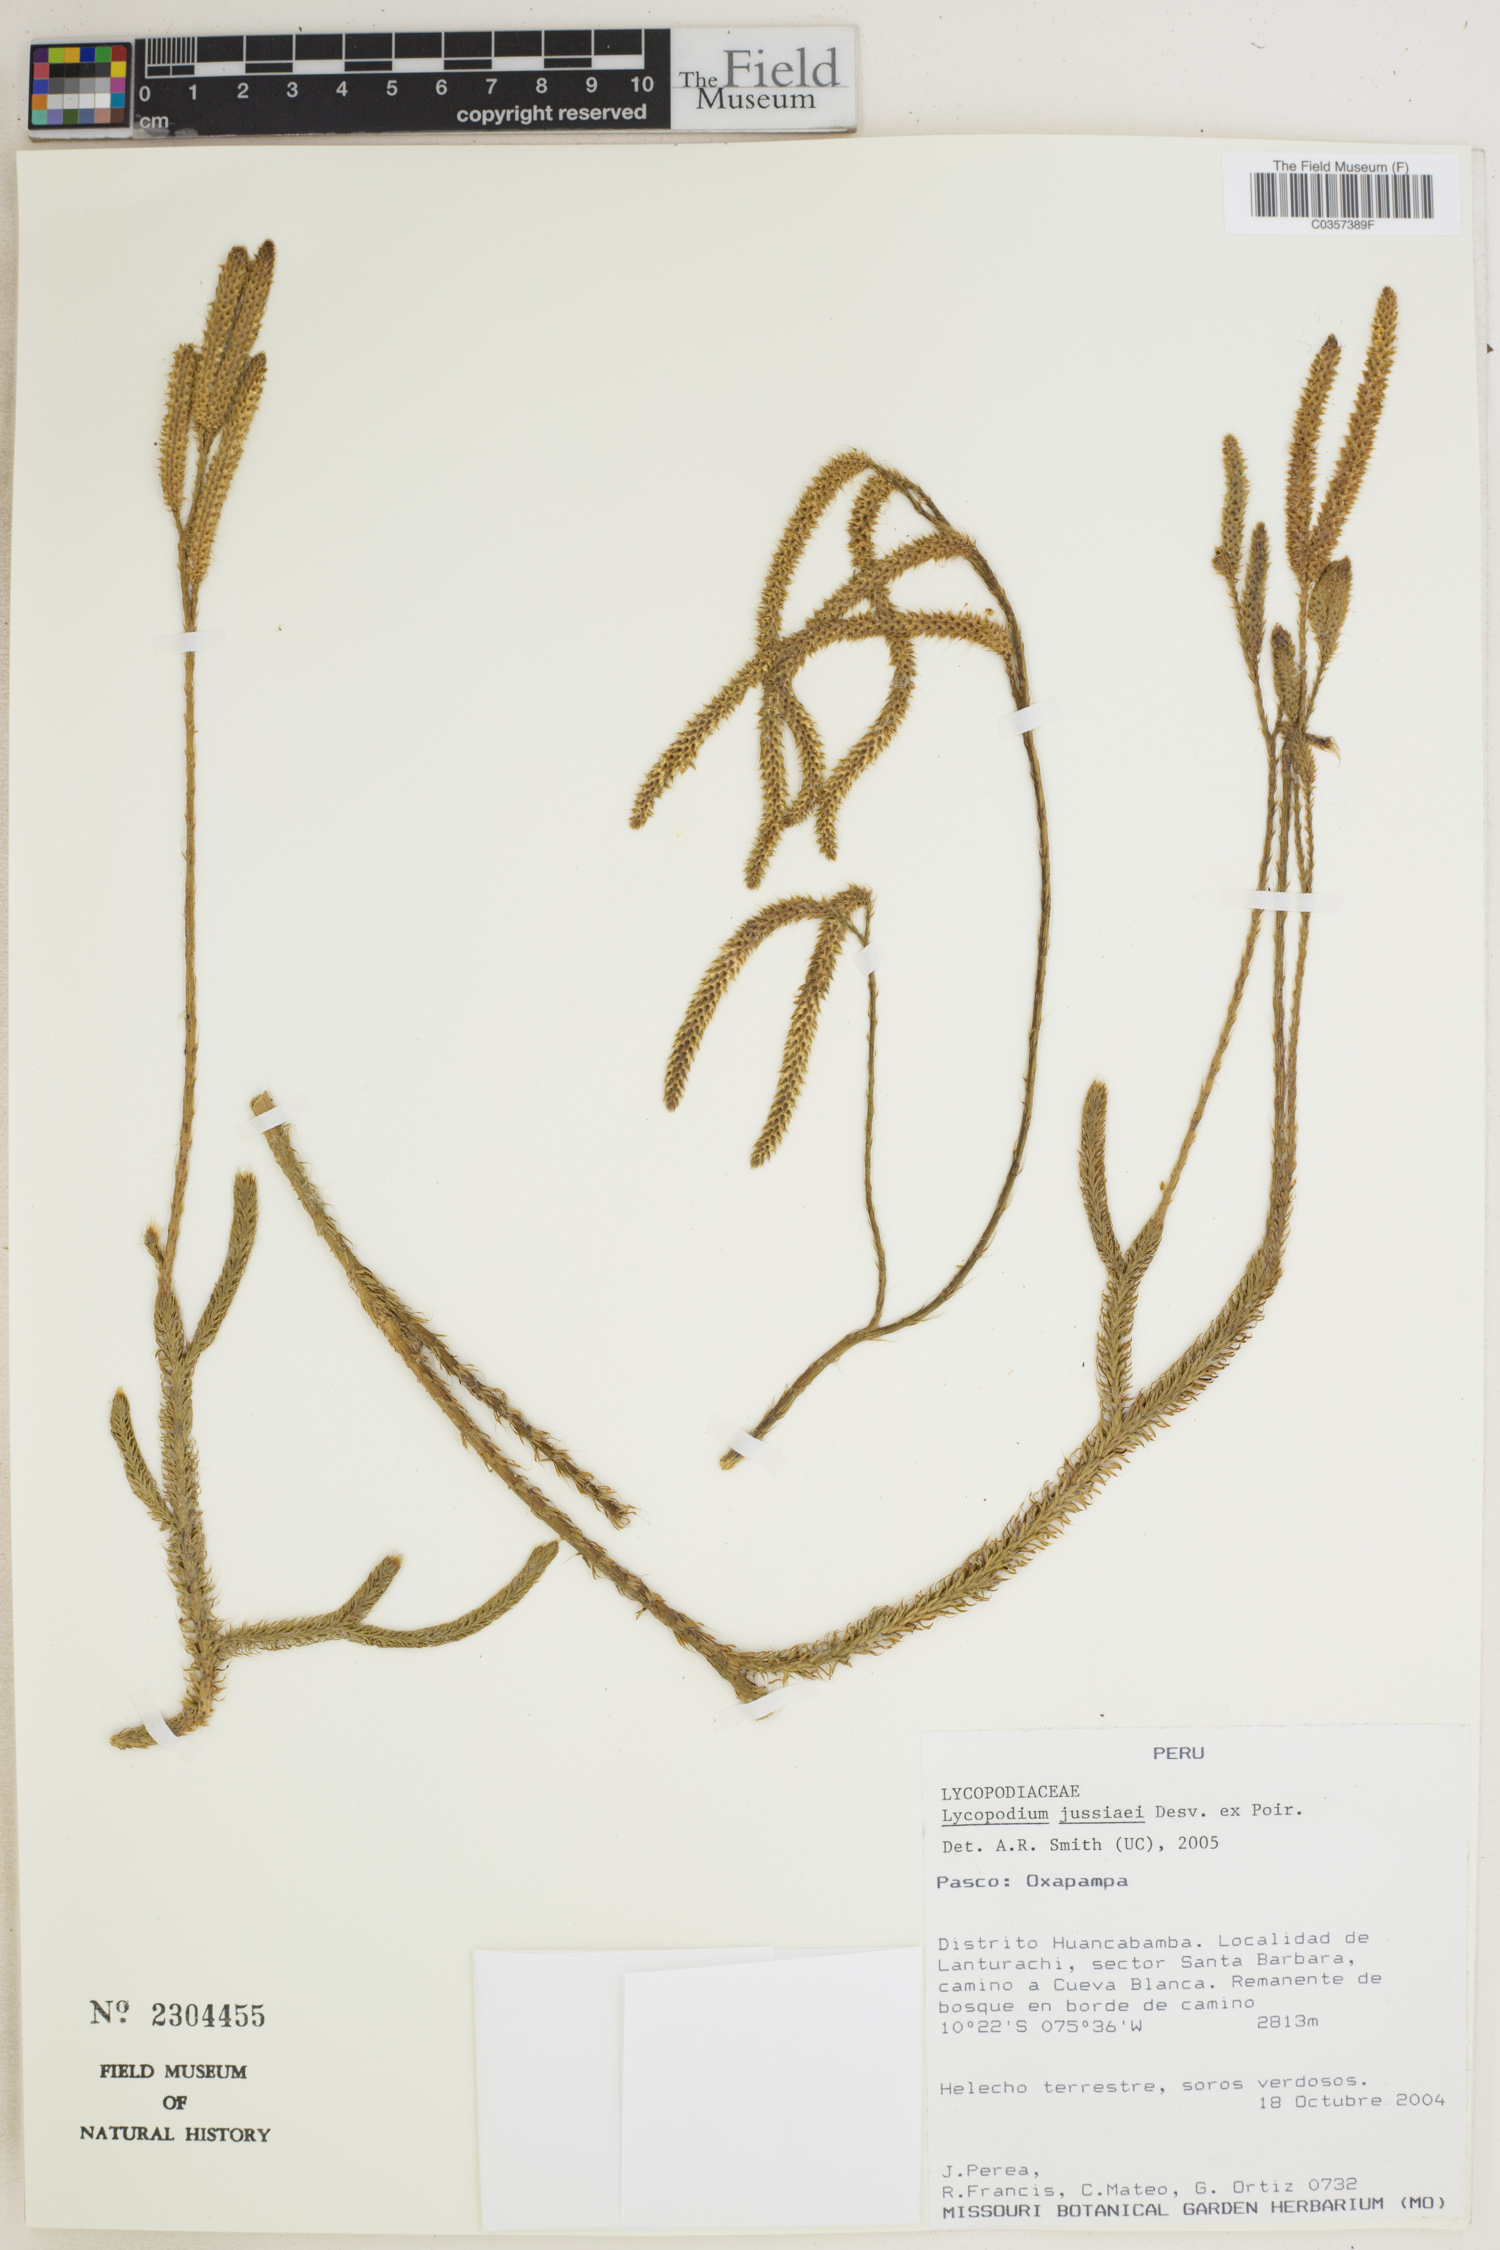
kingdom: Plantae
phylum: Tracheophyta
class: Lycopodiopsida
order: Lycopodiales
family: Lycopodiaceae
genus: Diphasium
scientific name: Diphasium jussiaei
